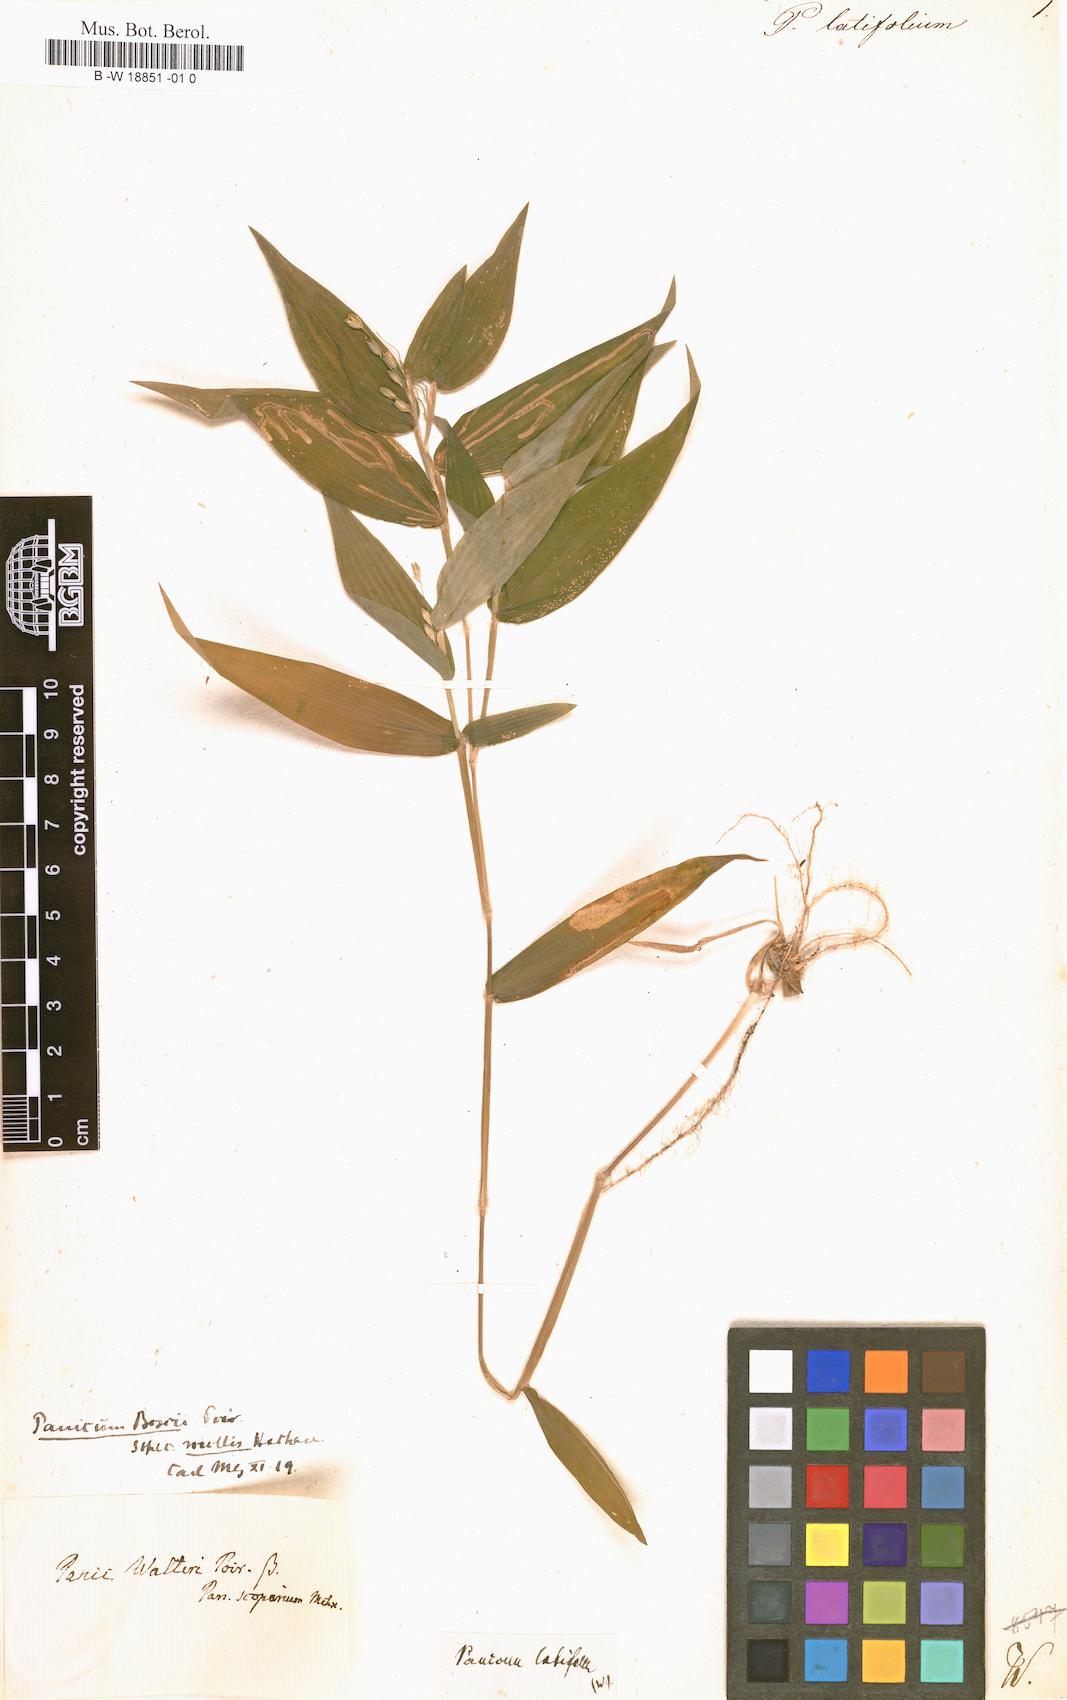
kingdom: Plantae
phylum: Tracheophyta
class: Liliopsida
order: Poales
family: Poaceae
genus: Dichanthelium
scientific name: Dichanthelium latifolium
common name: Broad-leaved panicgrass
